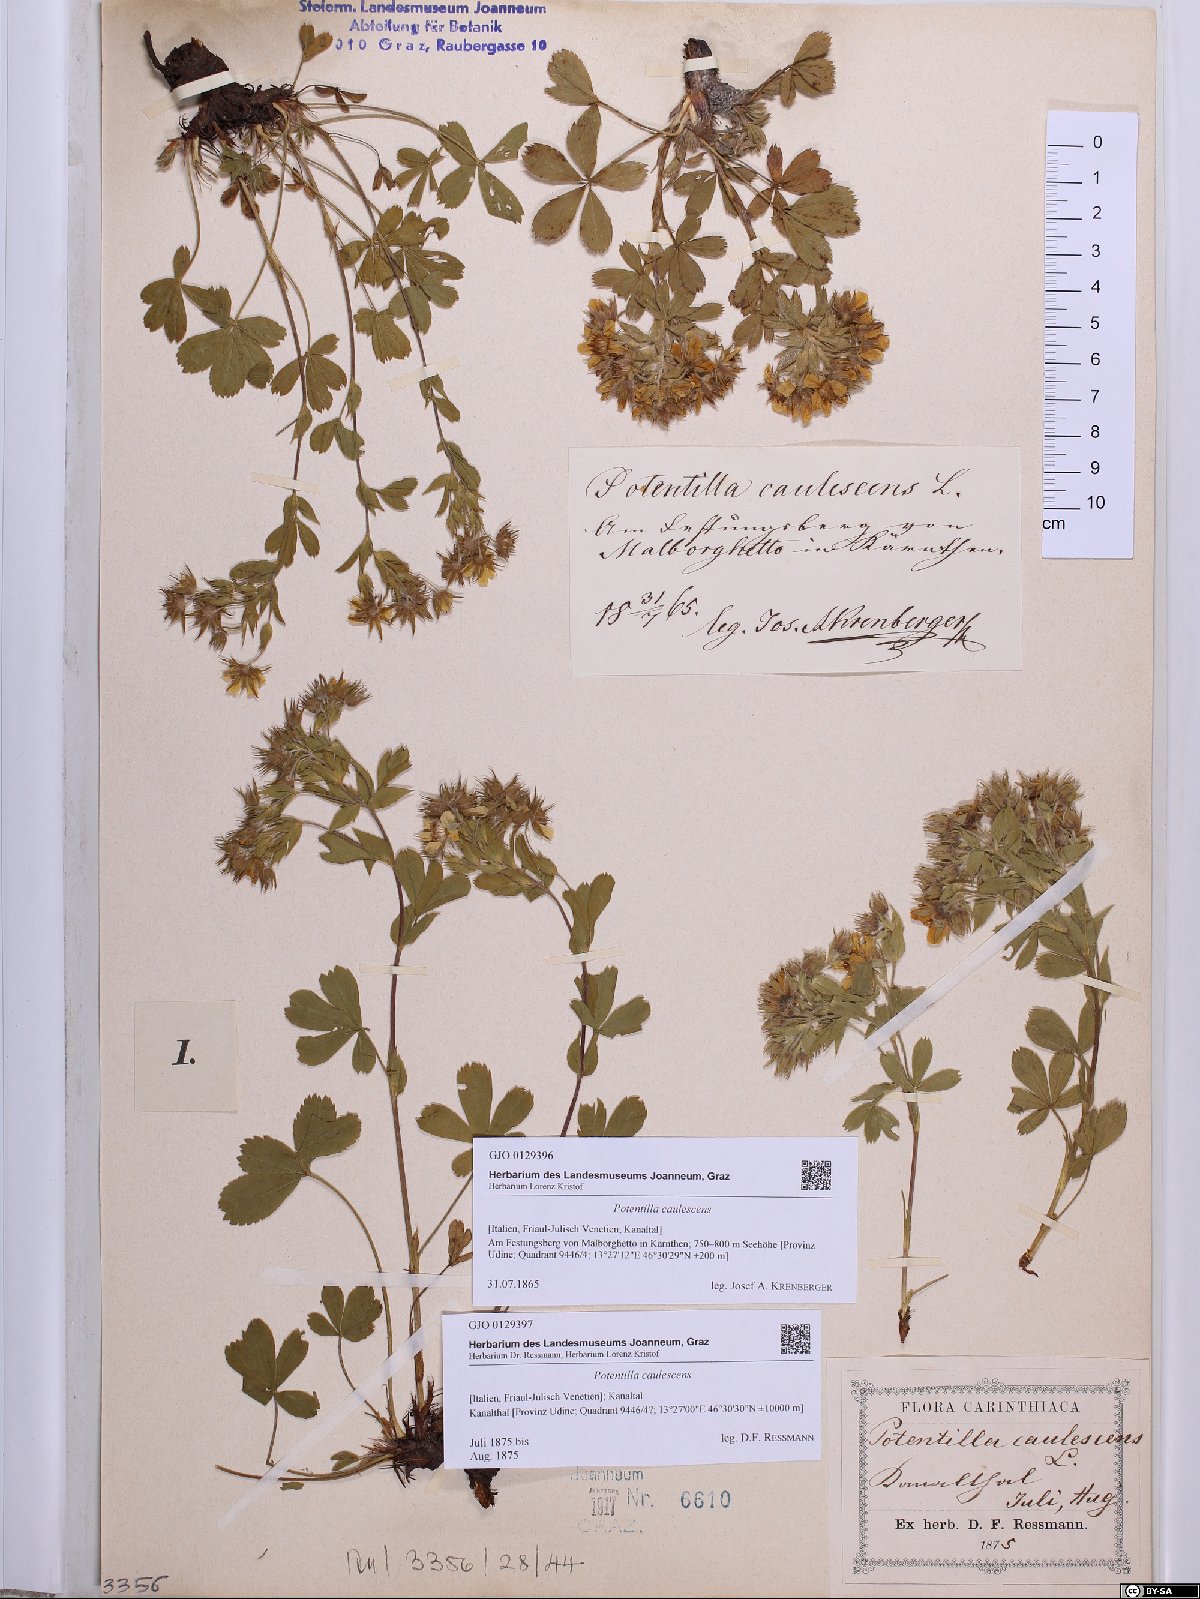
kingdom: Plantae
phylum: Tracheophyta
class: Magnoliopsida
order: Rosales
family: Rosaceae
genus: Potentilla
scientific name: Potentilla caulescens
